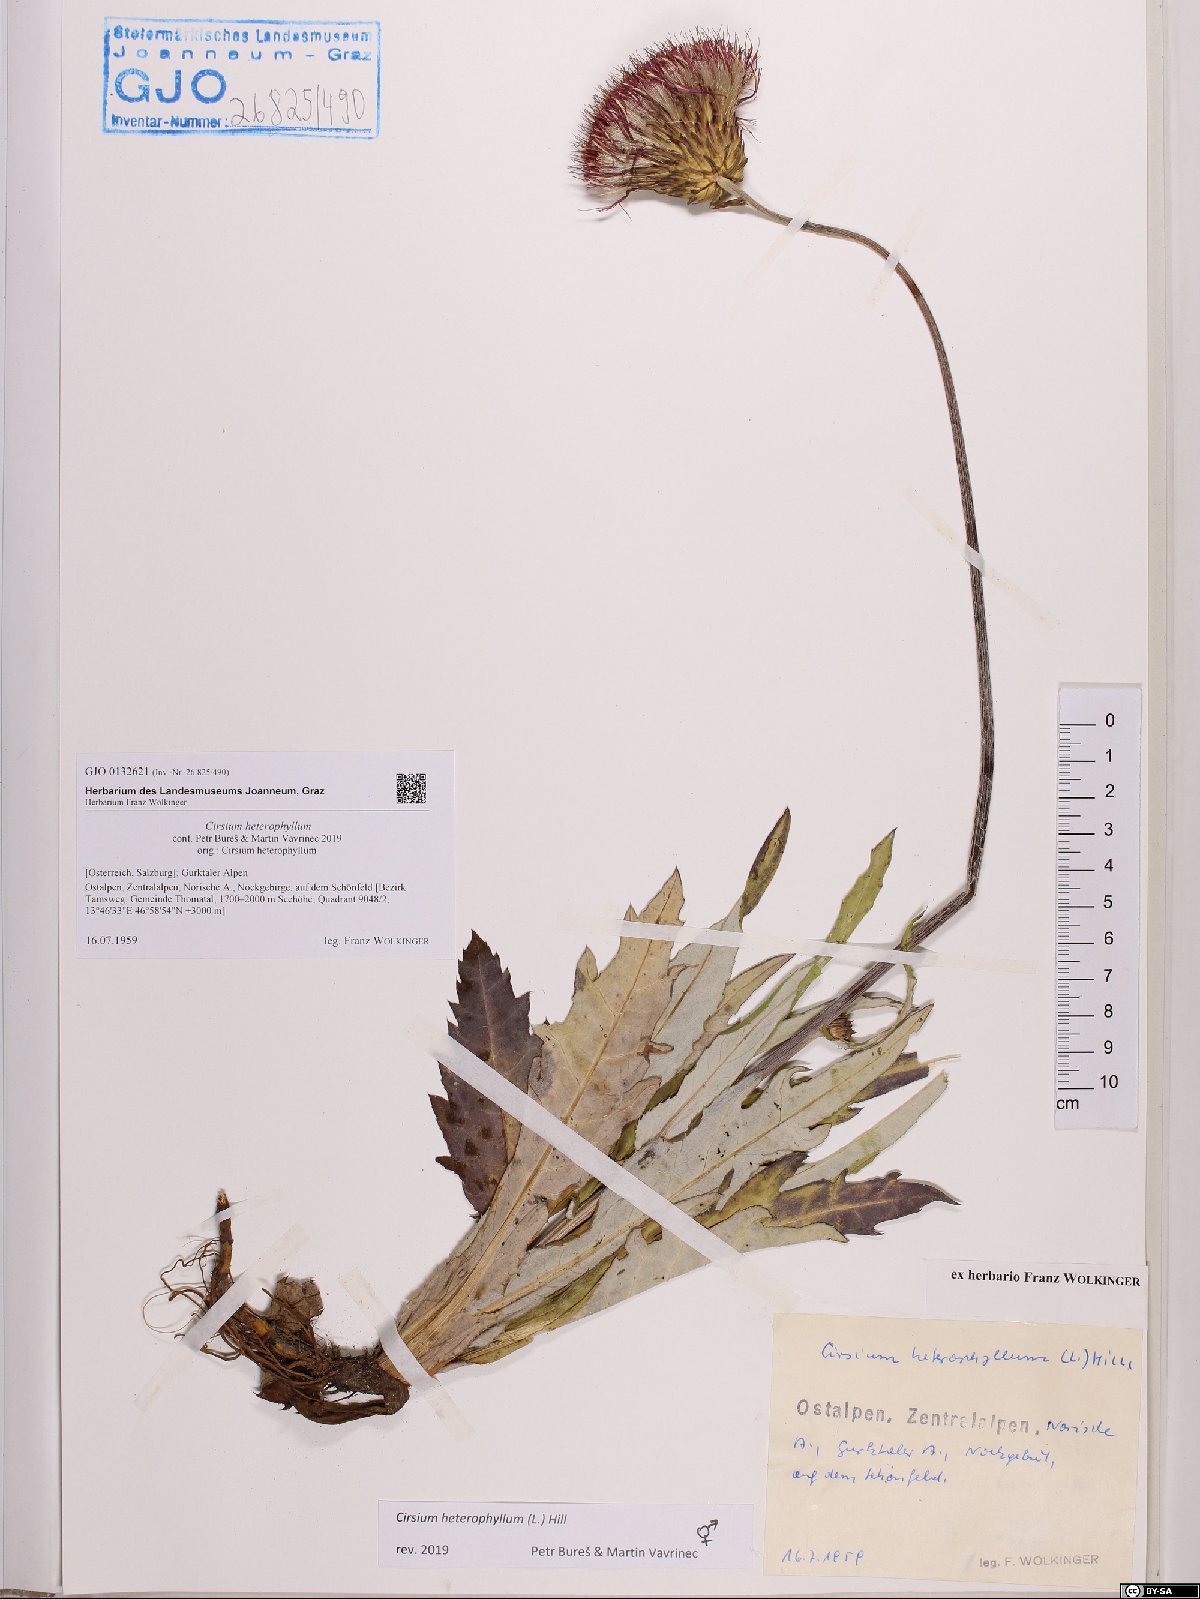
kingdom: Plantae
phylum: Tracheophyta
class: Magnoliopsida
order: Asterales
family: Asteraceae
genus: Cirsium
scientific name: Cirsium heterophyllum
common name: Melancholy thistle
